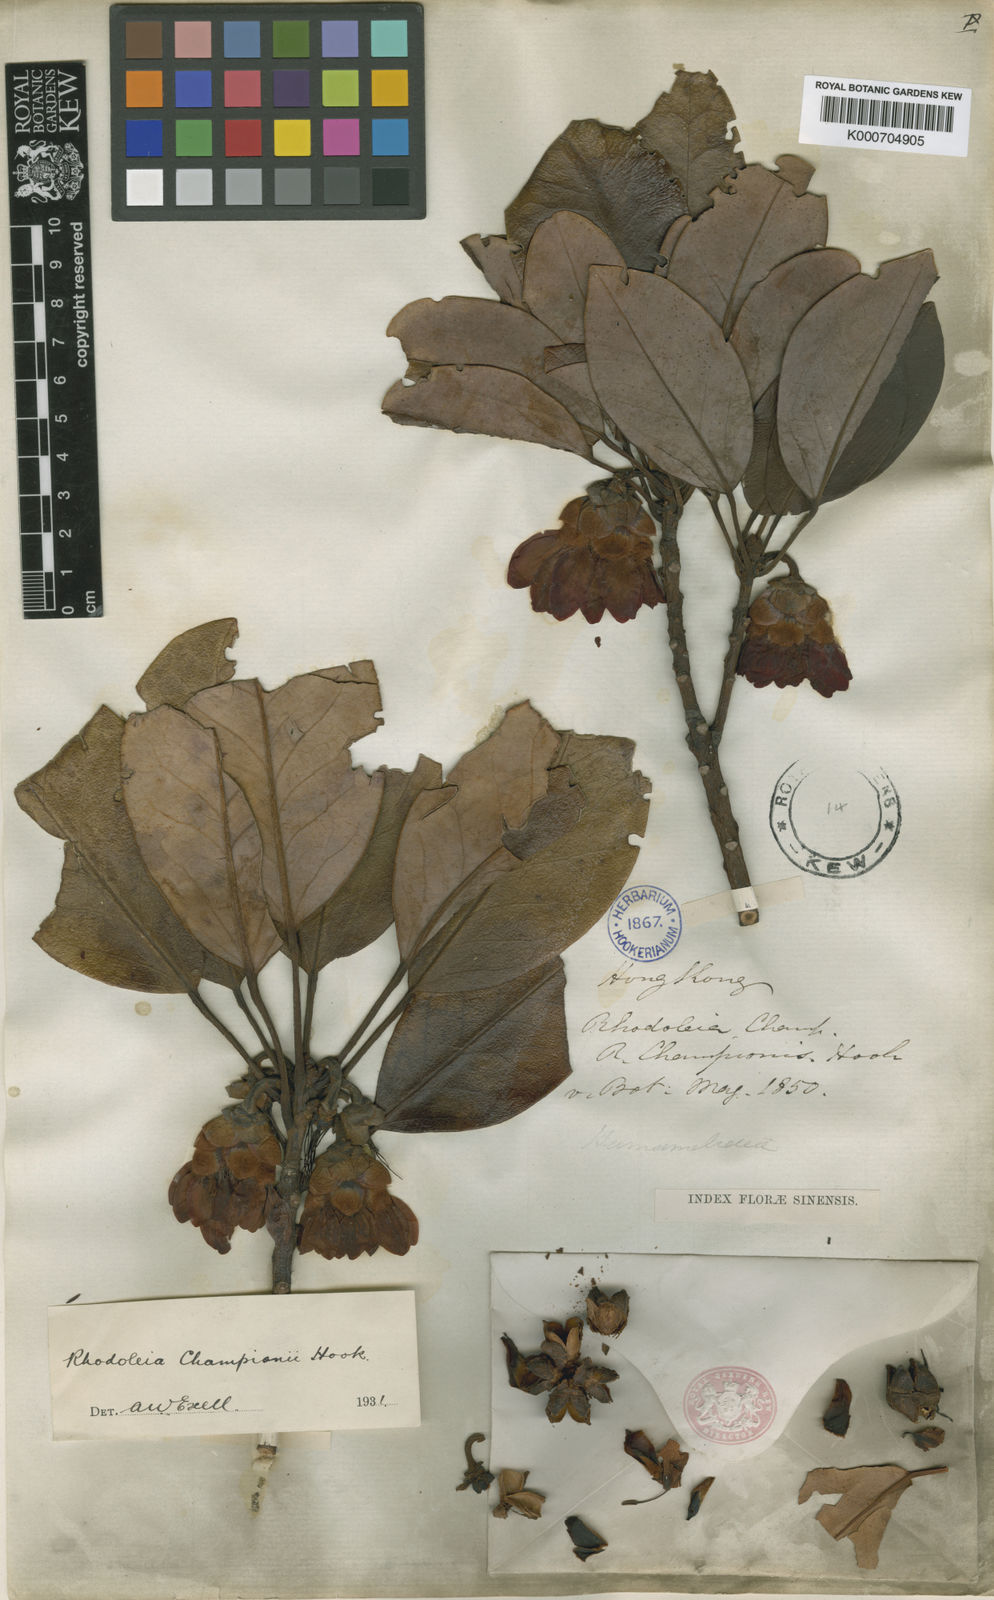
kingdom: Plantae
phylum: Tracheophyta
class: Magnoliopsida
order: Saxifragales
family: Hamamelidaceae
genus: Rhodoleia
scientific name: Rhodoleia championii
